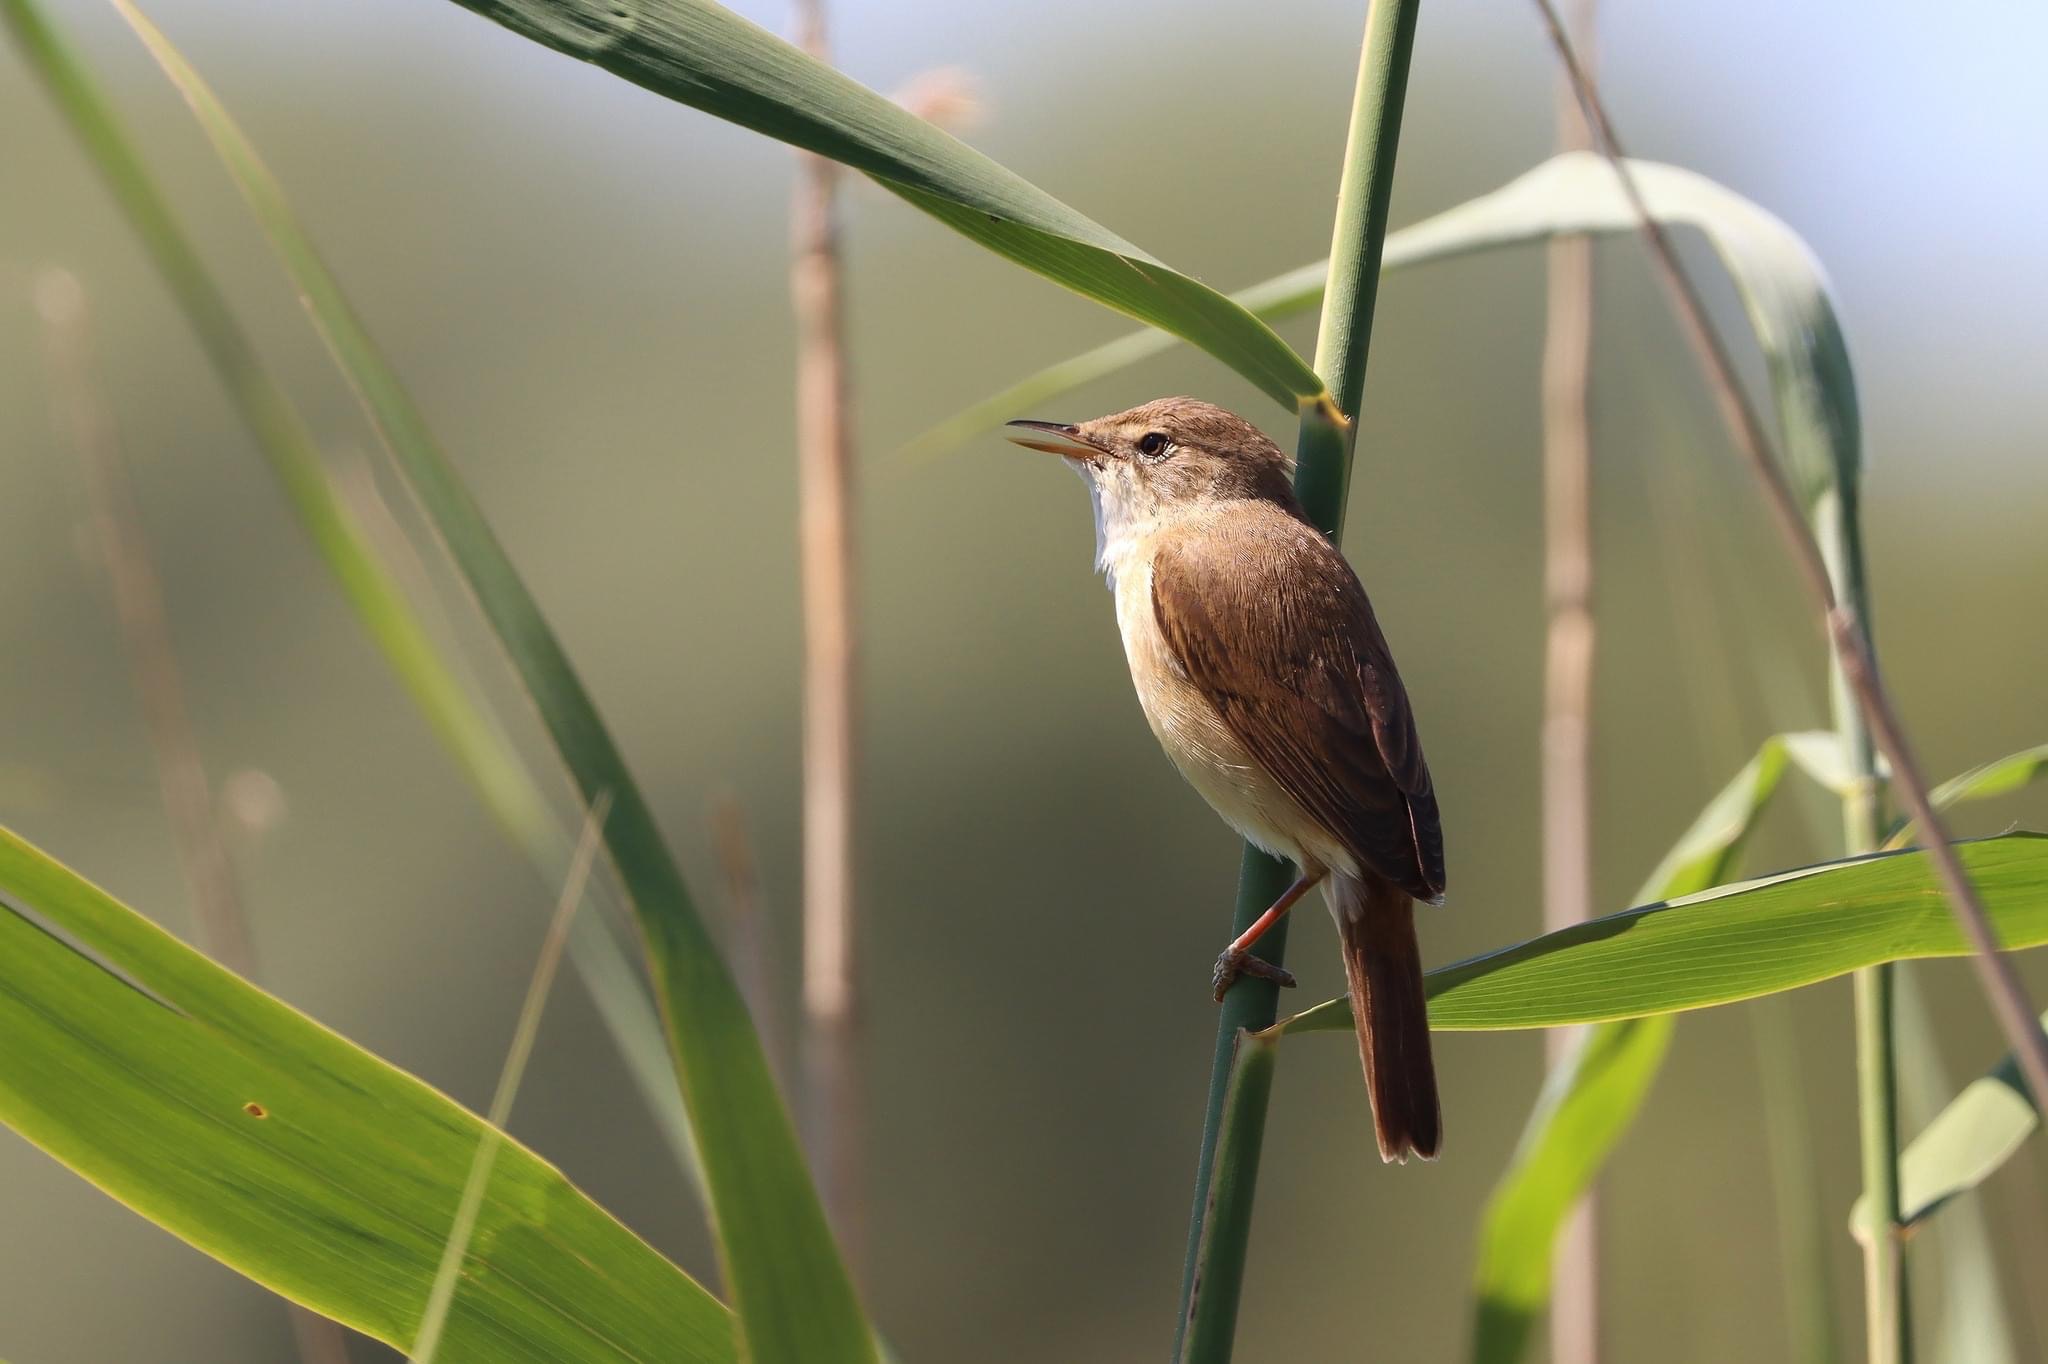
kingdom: Animalia
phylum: Chordata
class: Aves
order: Passeriformes
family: Acrocephalidae
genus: Acrocephalus
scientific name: Acrocephalus scirpaceus
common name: Rørsanger
